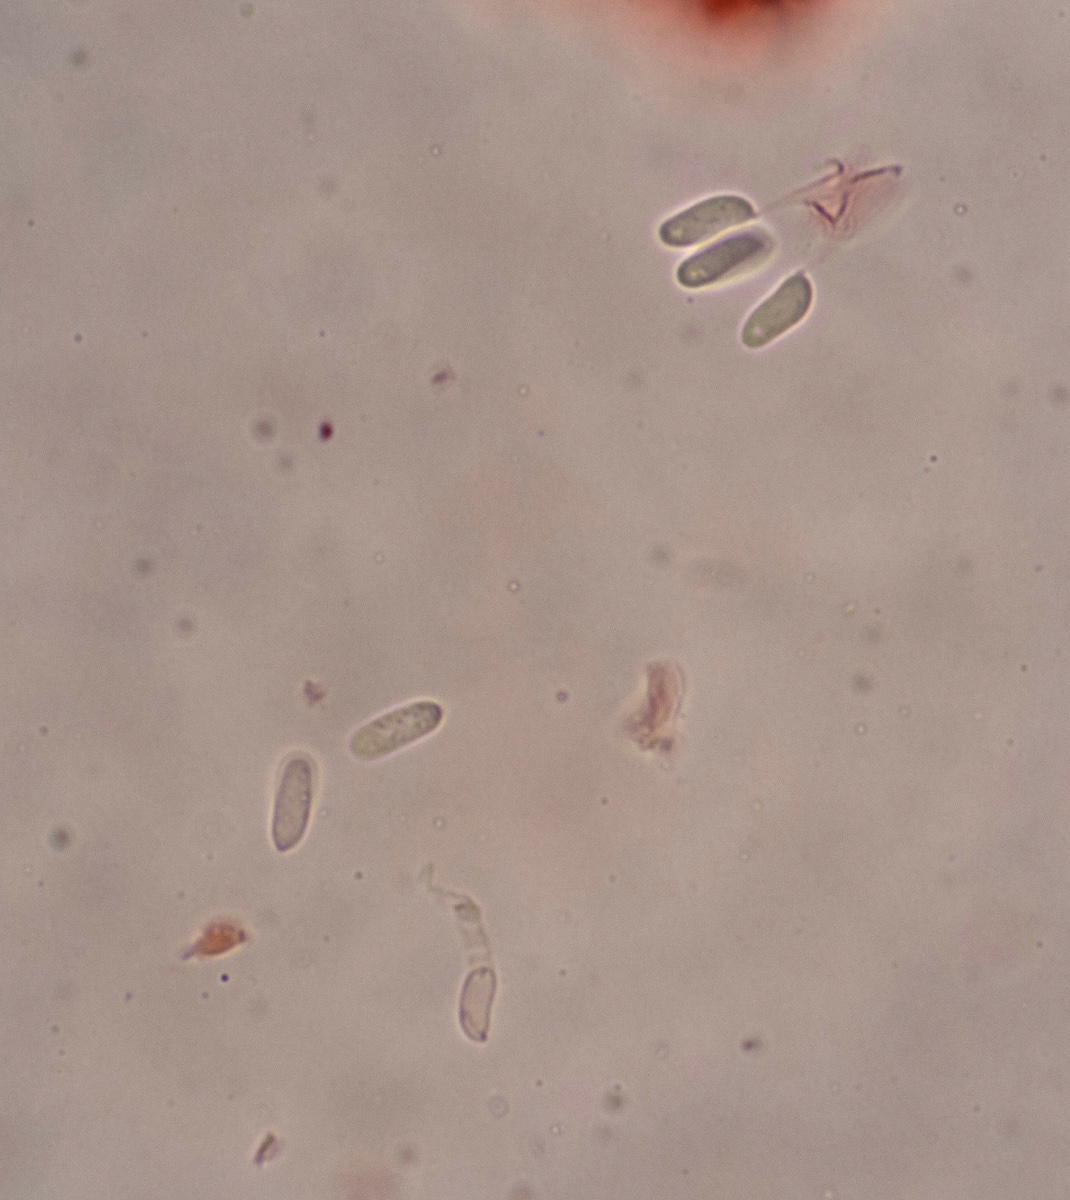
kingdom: Fungi
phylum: Basidiomycota
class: Agaricomycetes
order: Polyporales
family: Fomitopsidaceae
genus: Fomitopsis
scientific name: Fomitopsis
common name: fyrre-skiveporesvamp
